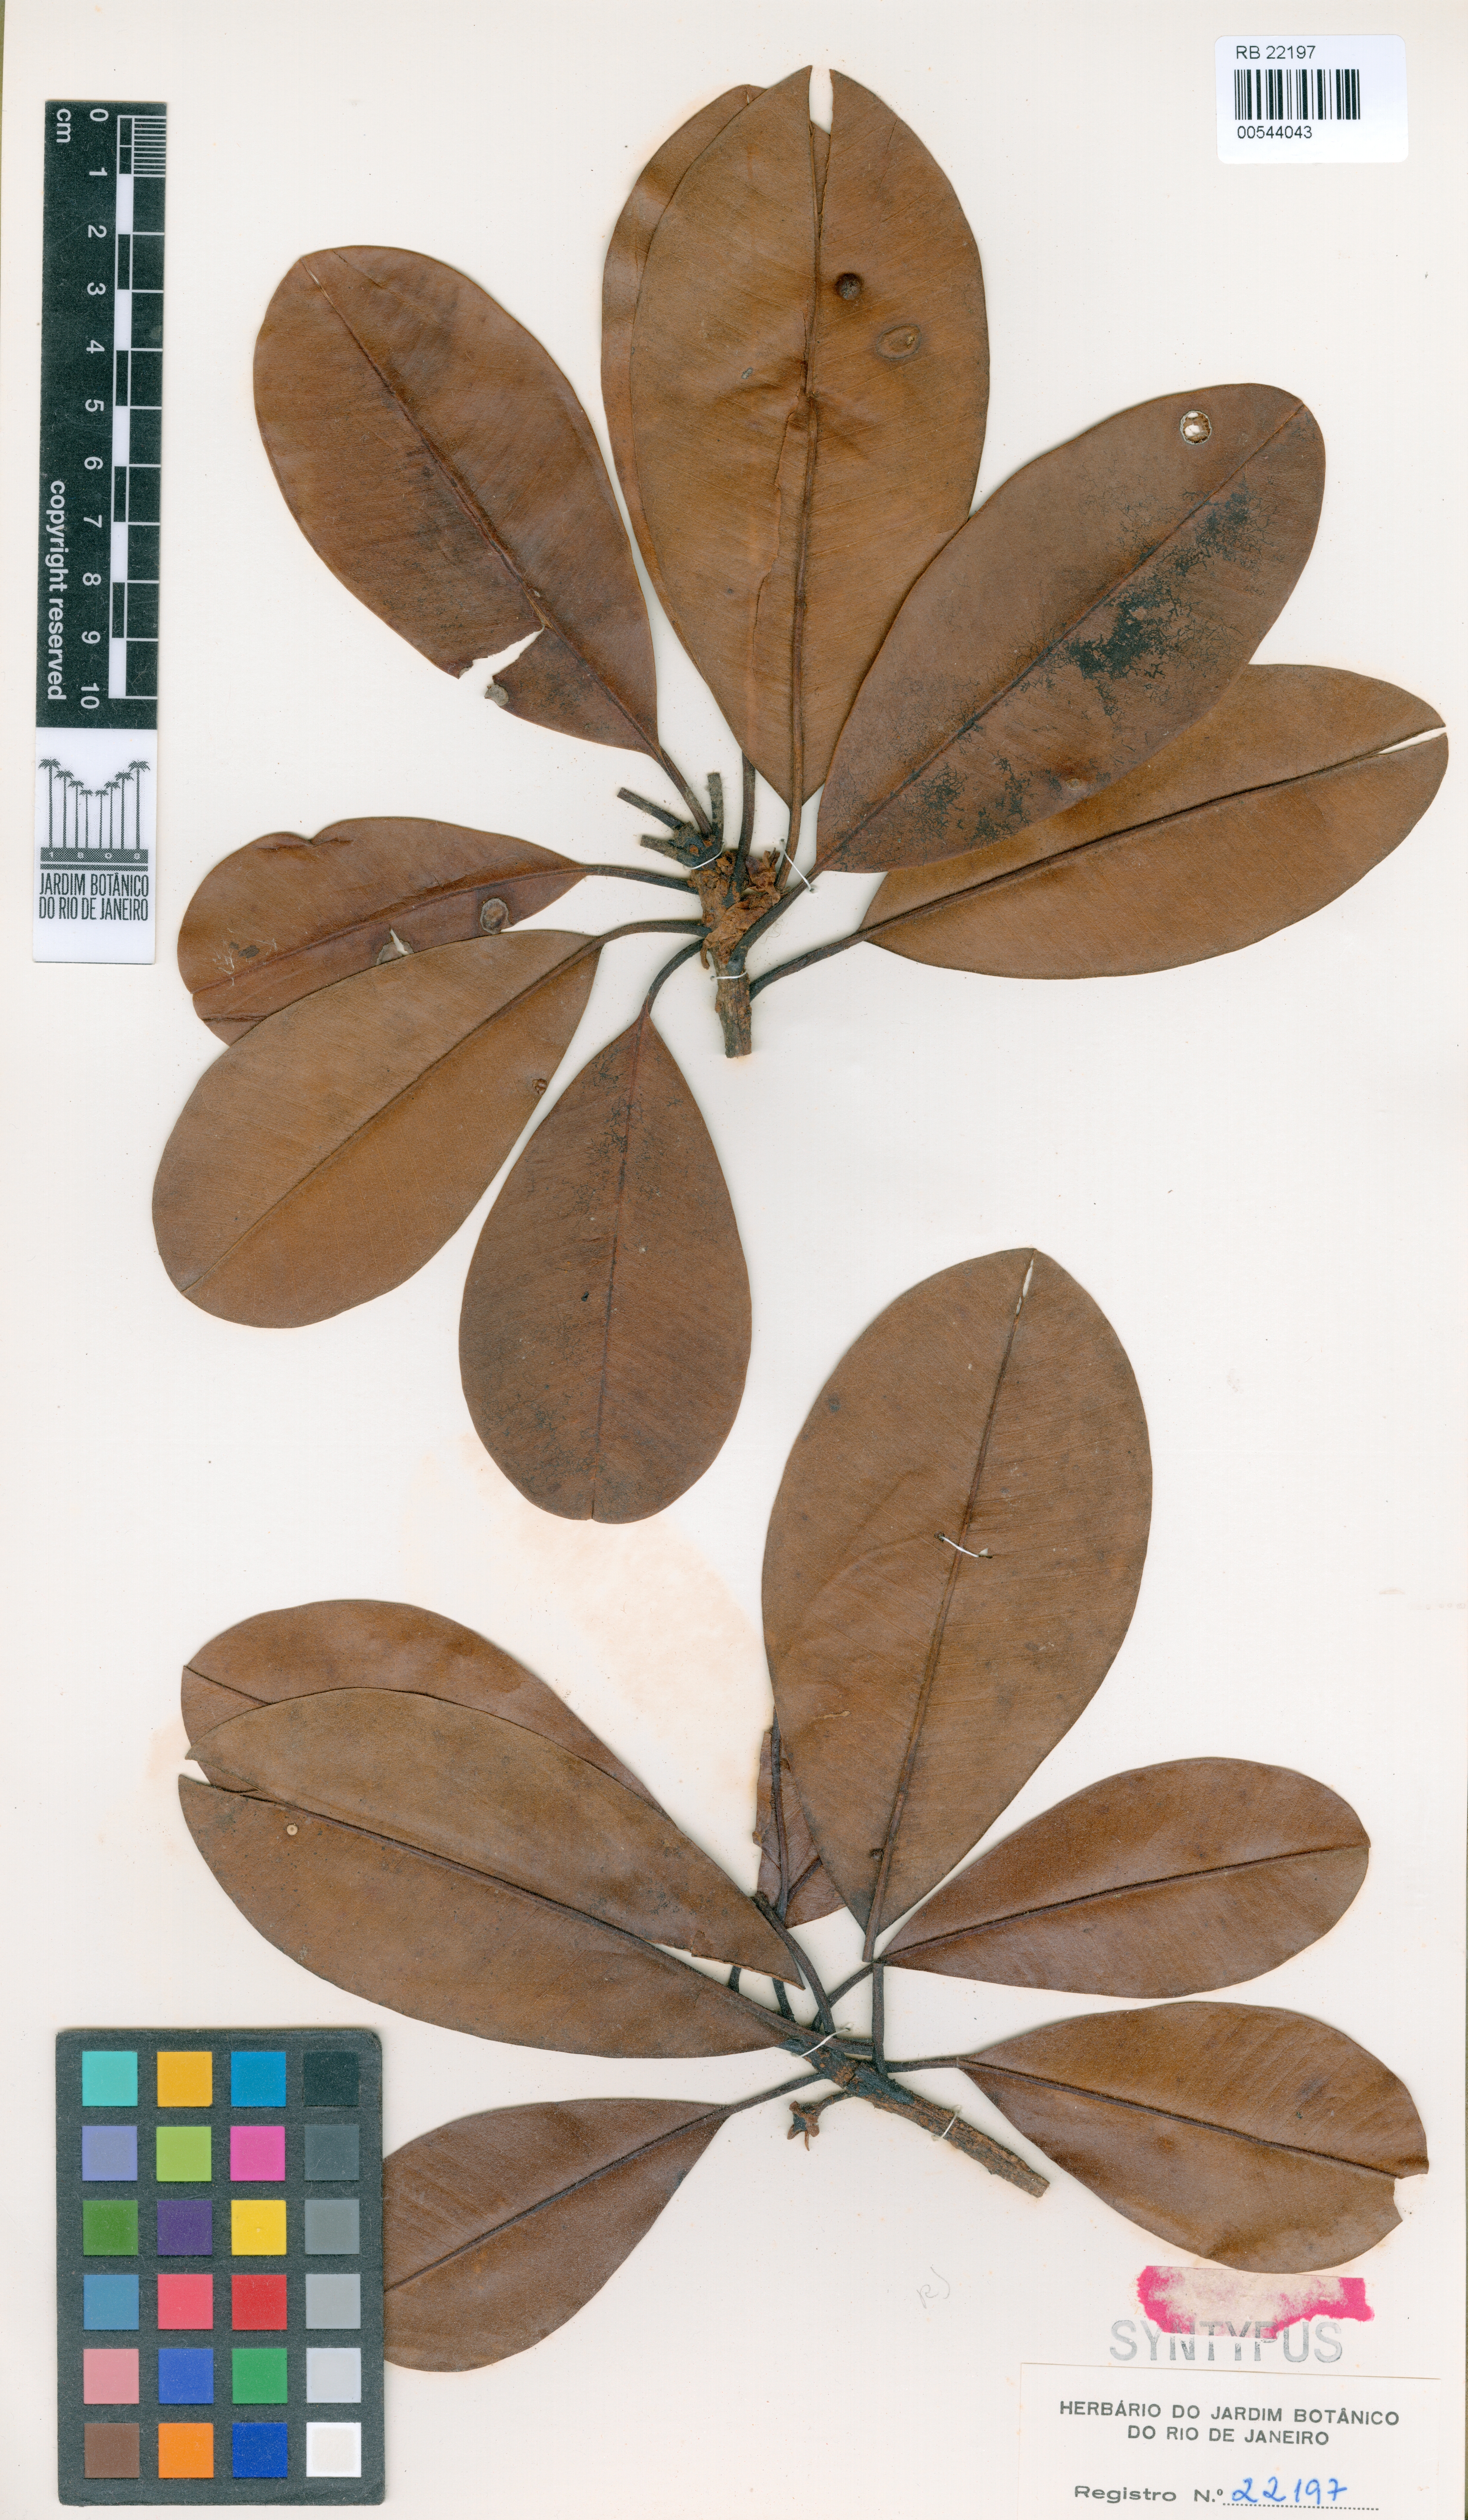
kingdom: Plantae
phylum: Tracheophyta
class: Magnoliopsida
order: Ericales
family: Sapotaceae
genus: Manilkara
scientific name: Manilkara bidentata
